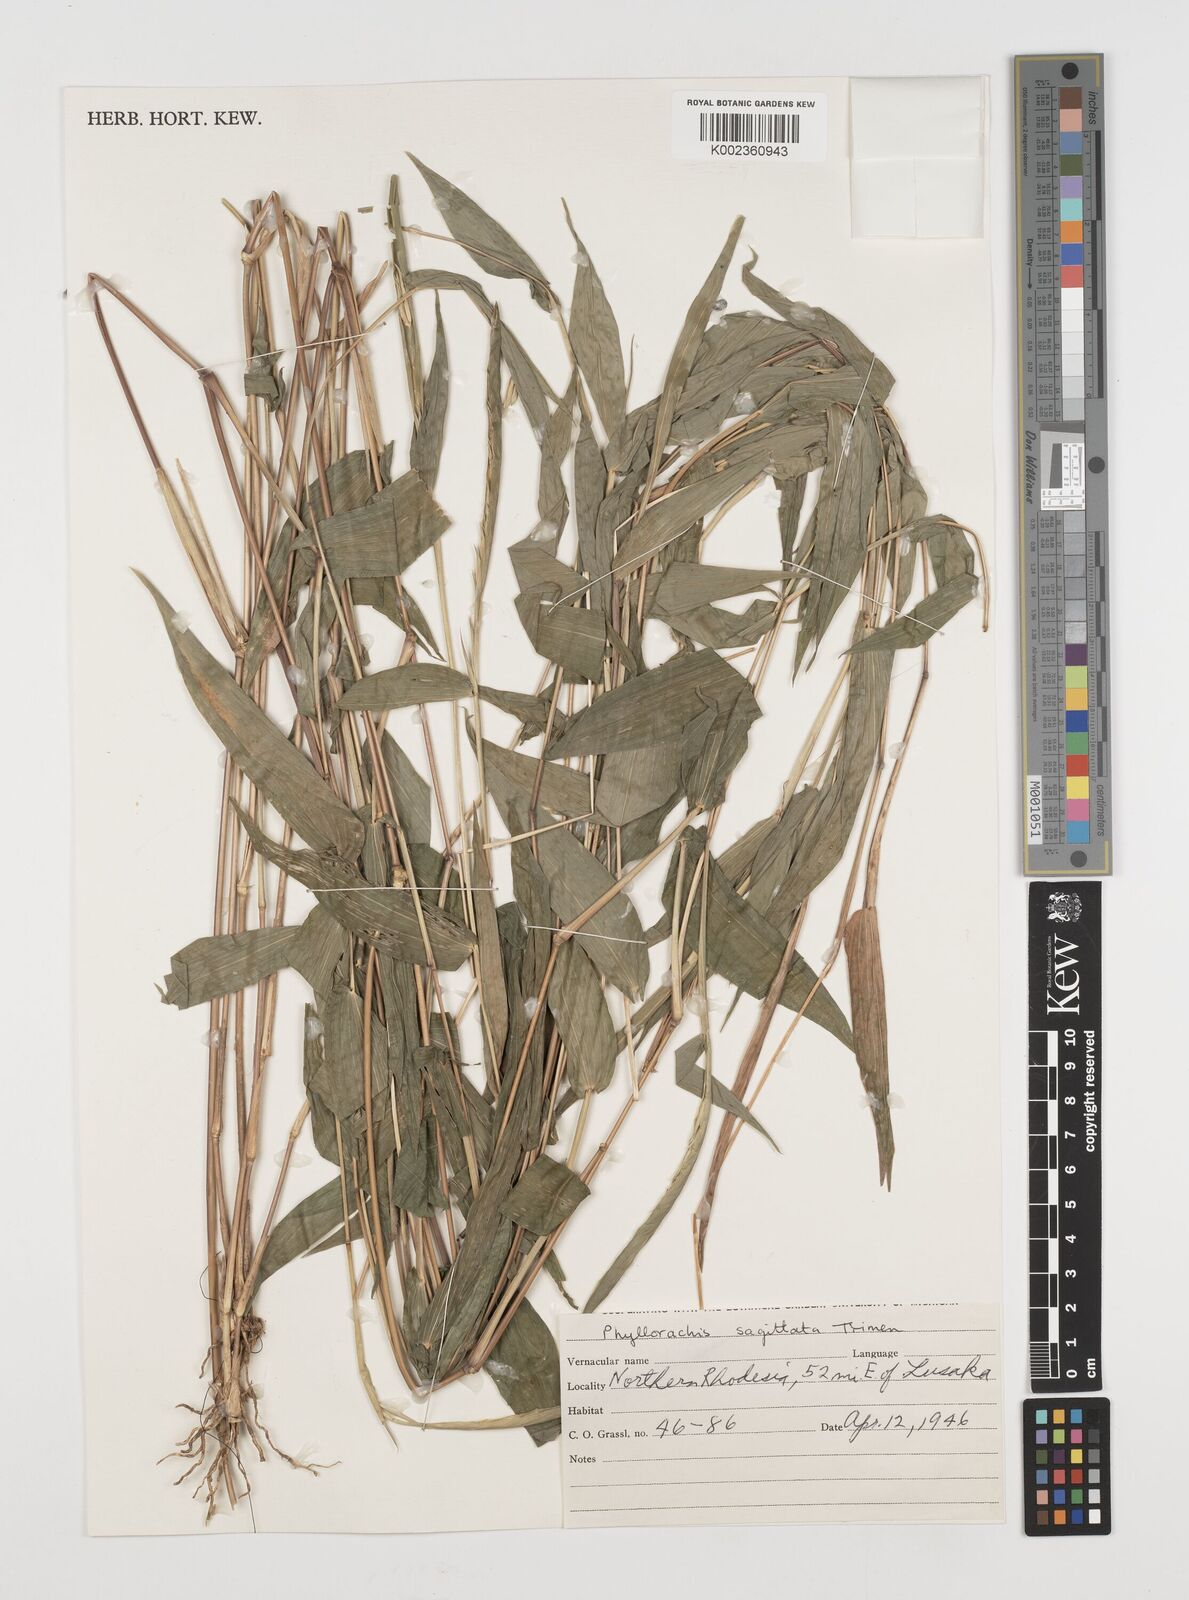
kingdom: Plantae
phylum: Tracheophyta
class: Liliopsida
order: Poales
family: Poaceae
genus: Phyllorachis
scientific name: Phyllorachis sagittata
